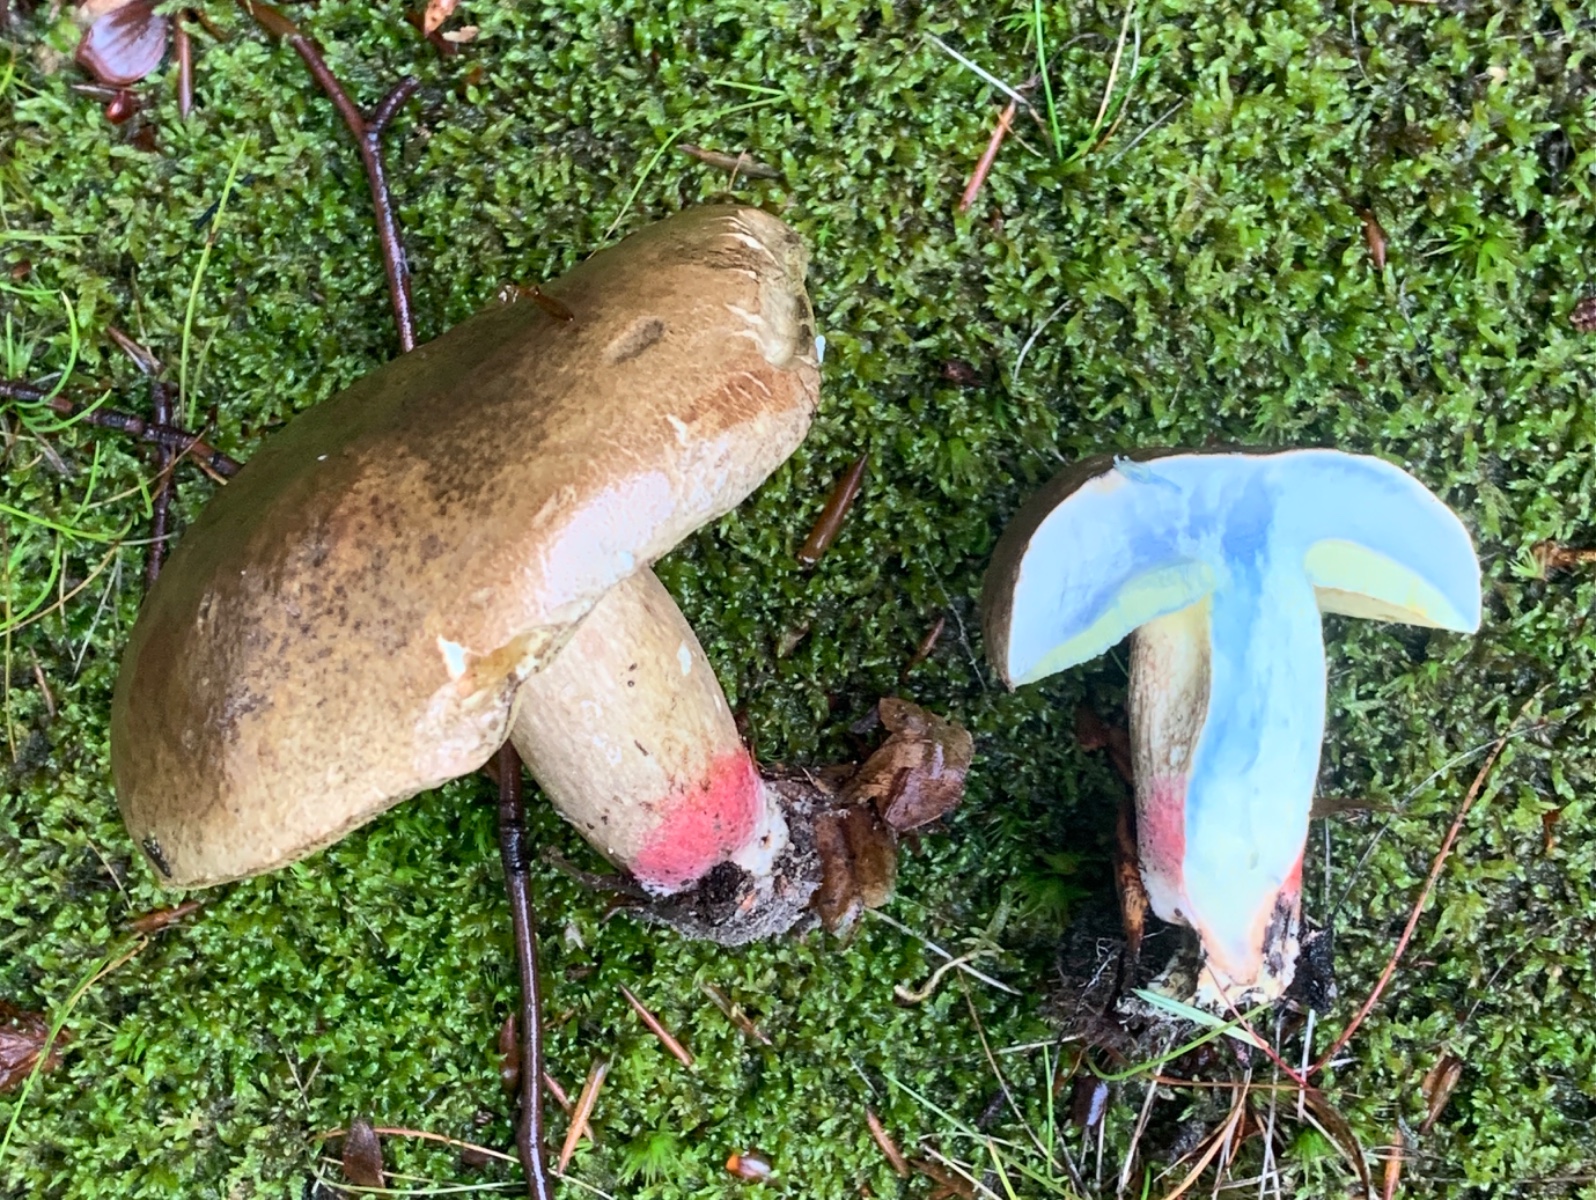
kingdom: Fungi
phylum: Basidiomycota
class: Agaricomycetes
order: Boletales
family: Boletaceae
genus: Caloboletus
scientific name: Caloboletus calopus
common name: skønfodet rørhat
